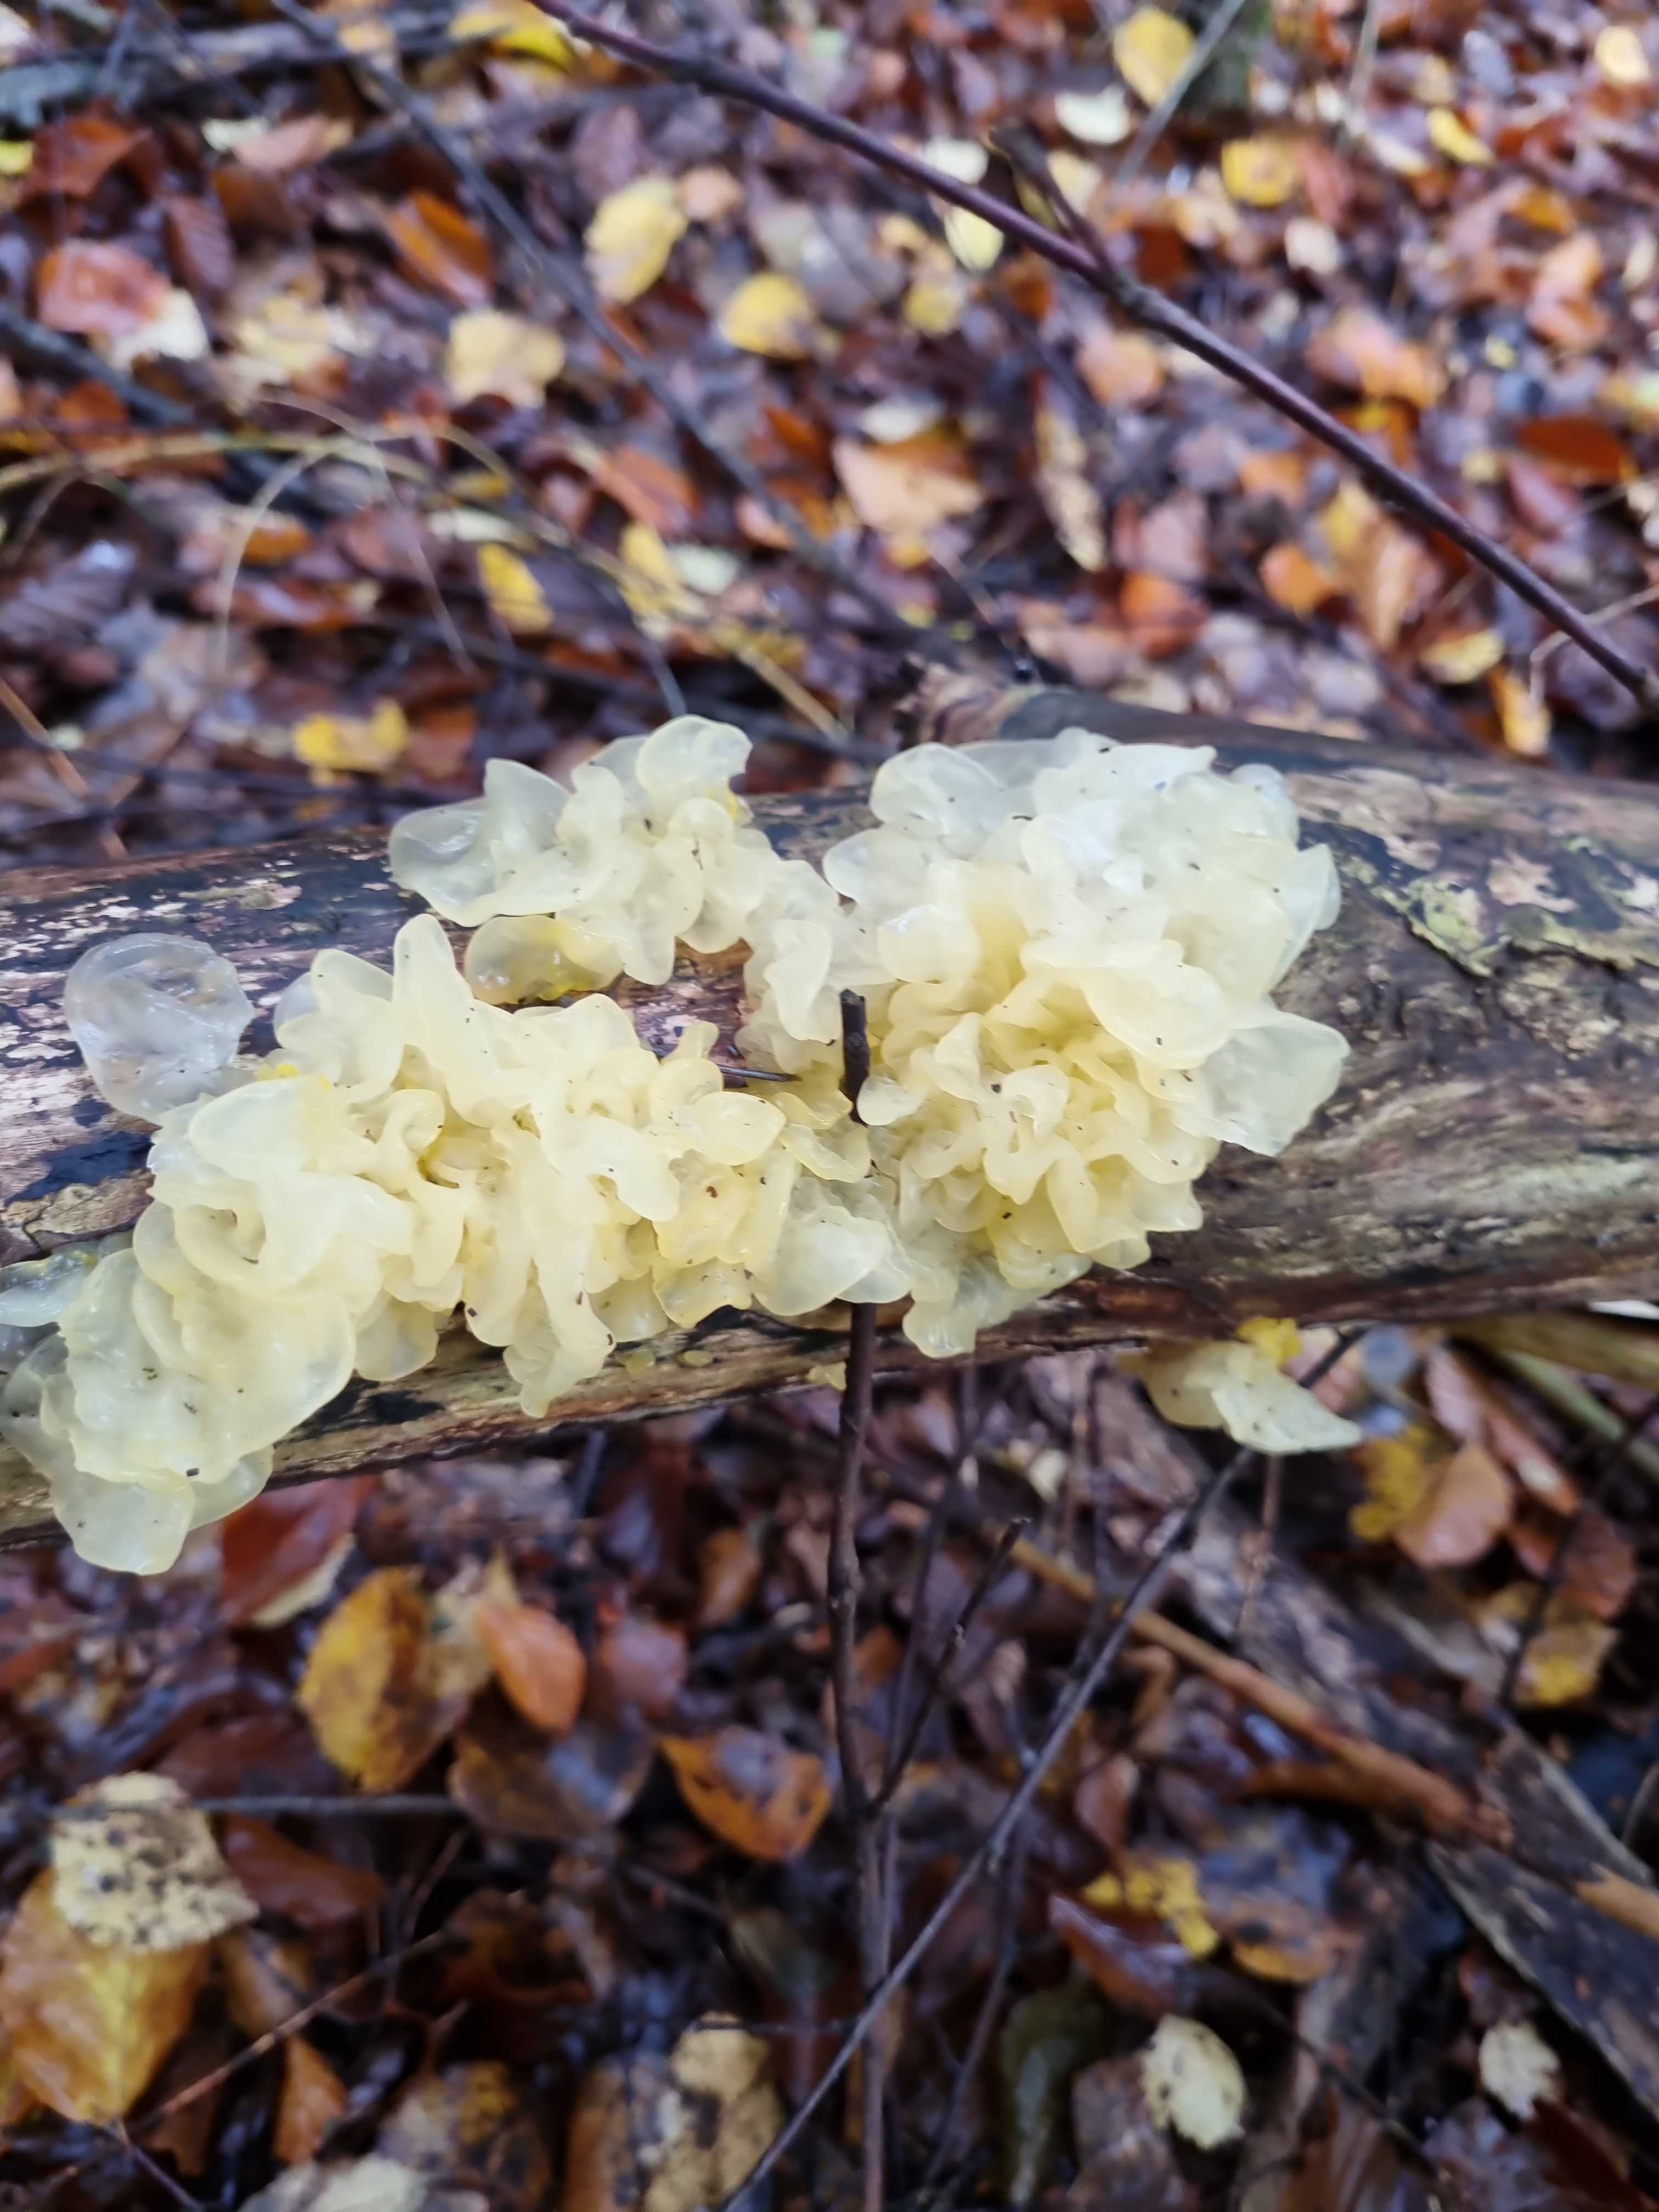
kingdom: Fungi
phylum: Basidiomycota
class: Tremellomycetes
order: Tremellales
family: Tremellaceae
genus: Tremella
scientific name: Tremella mesenterica
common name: gul bævresvamp
